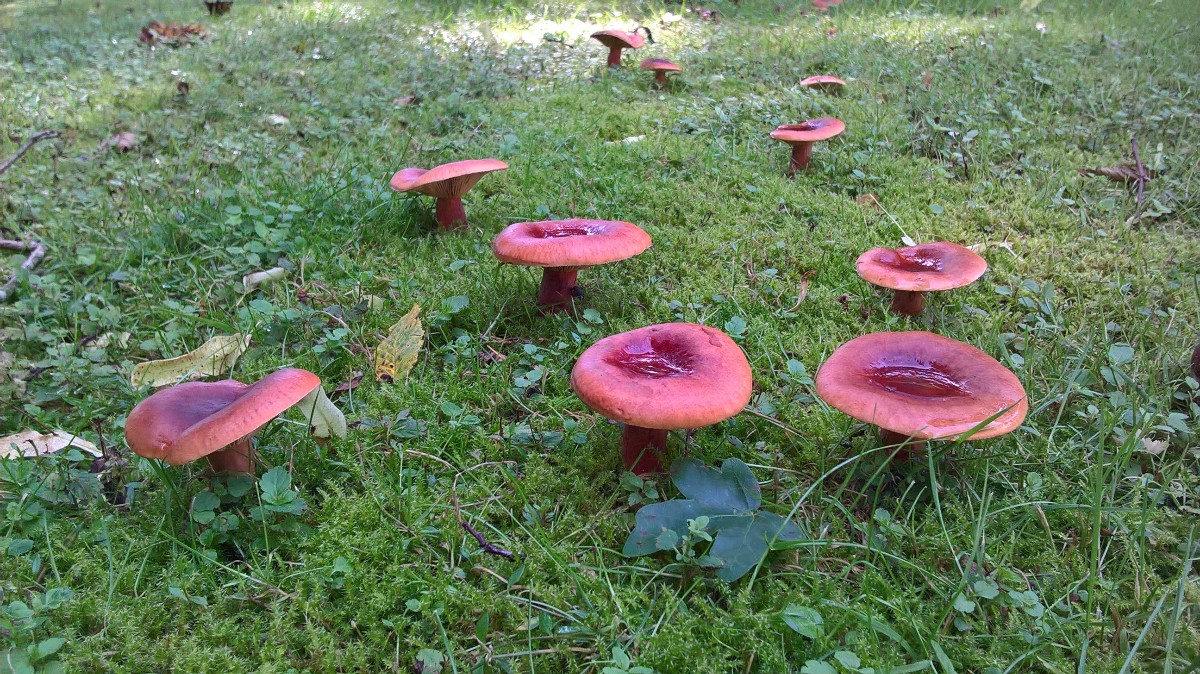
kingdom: Fungi
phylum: Basidiomycota
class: Agaricomycetes
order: Russulales
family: Russulaceae
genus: Lactarius
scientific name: Lactarius fulvissimus
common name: ræve-mælkehat
